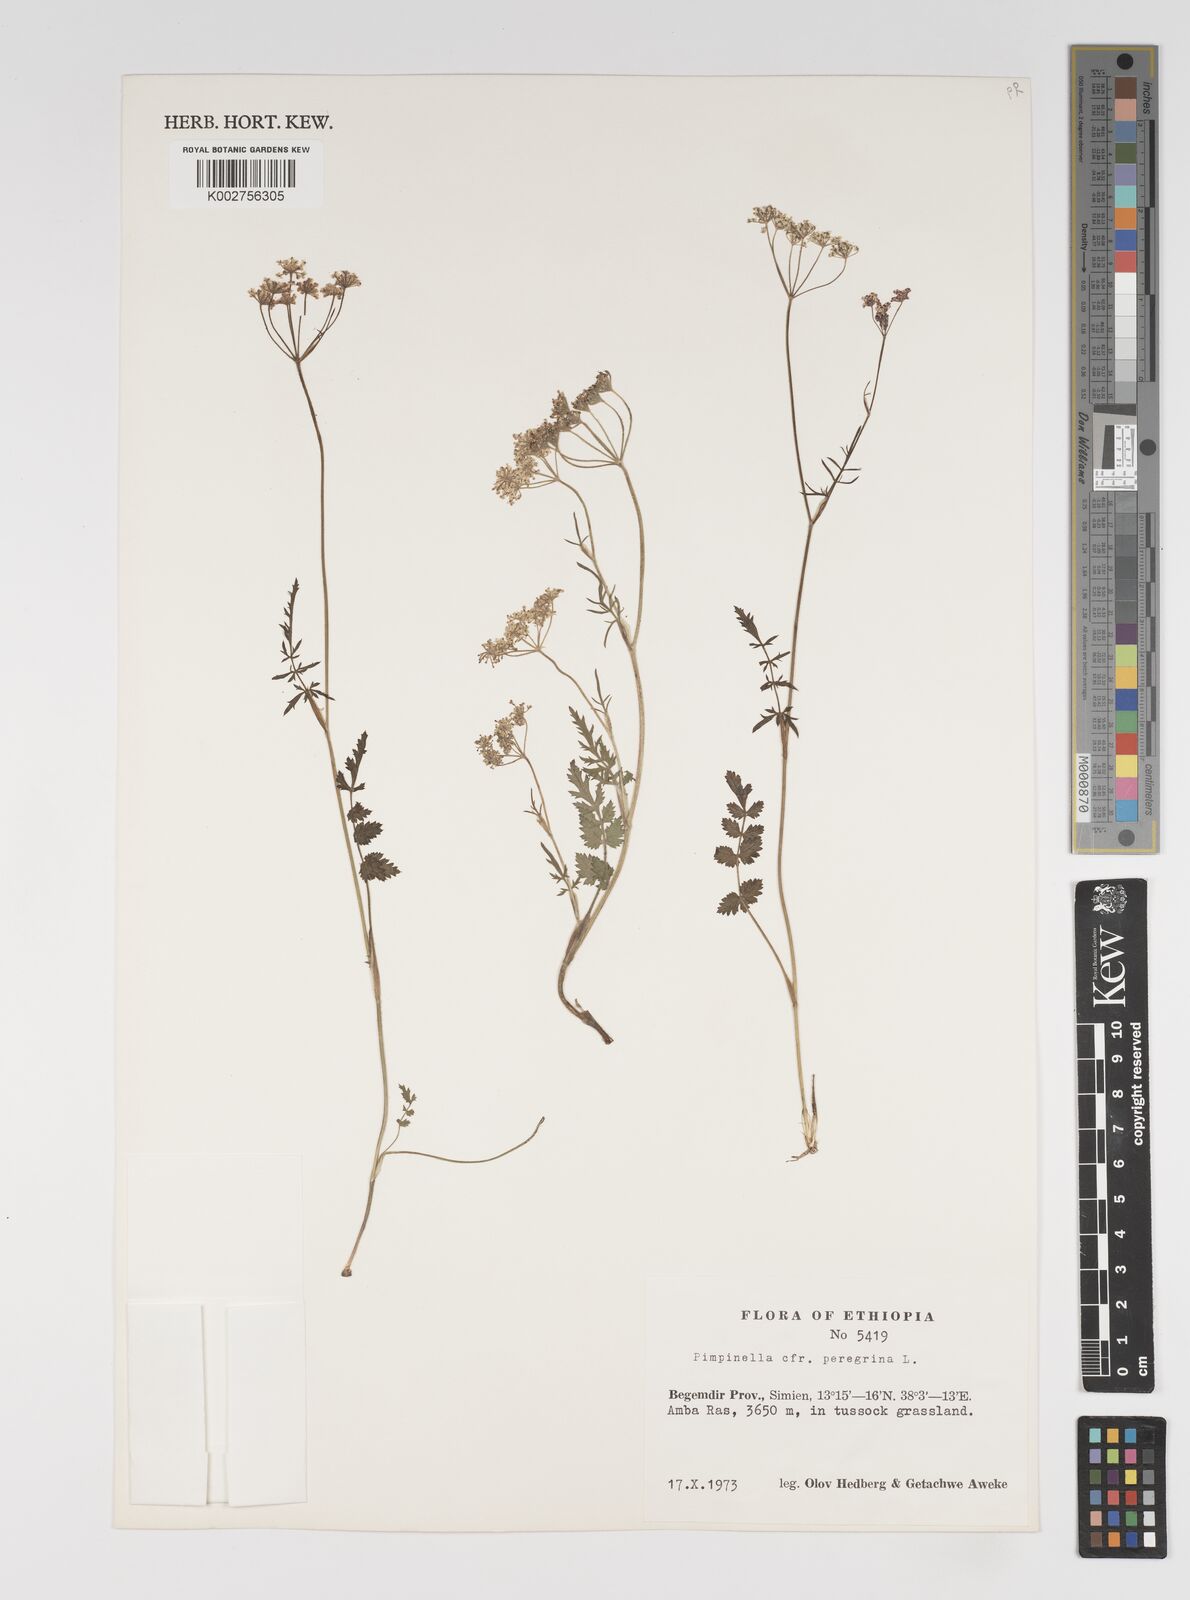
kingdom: Plantae
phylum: Tracheophyta
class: Magnoliopsida
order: Apiales
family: Apiaceae
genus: Pimpinella
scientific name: Pimpinella peregrina
